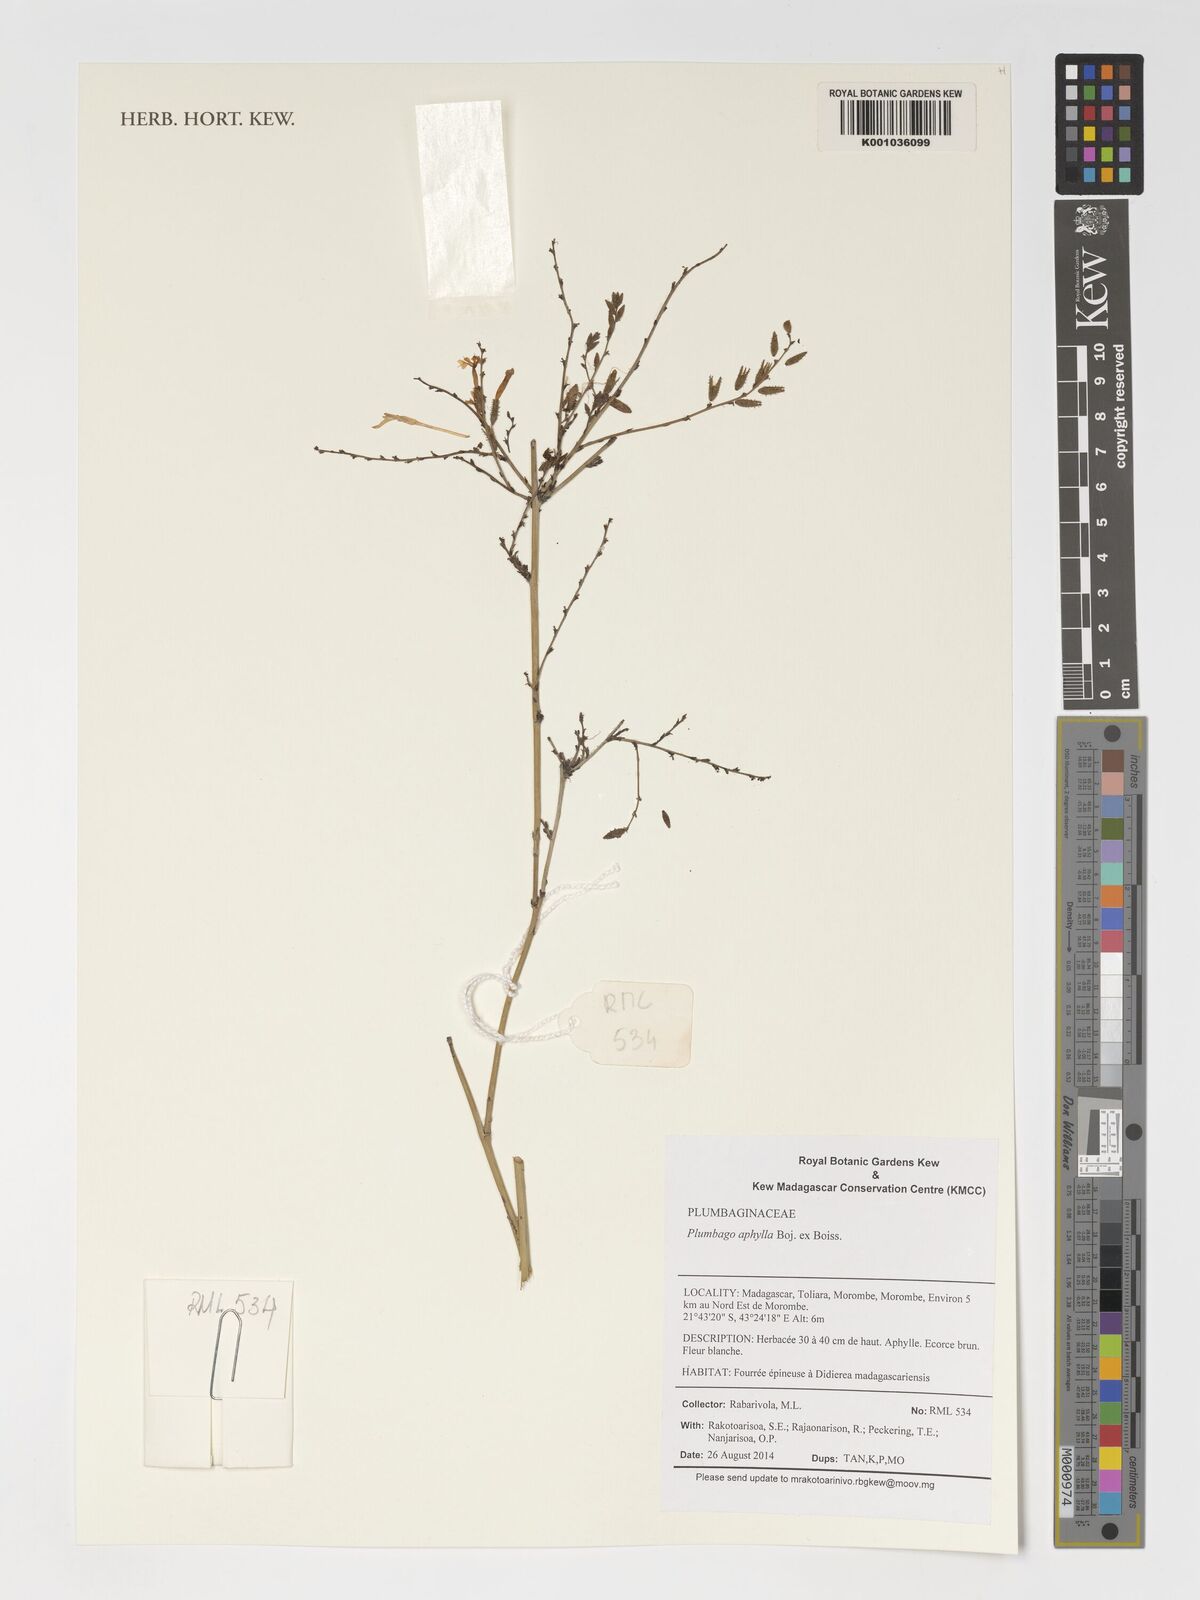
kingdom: Plantae
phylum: Tracheophyta
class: Magnoliopsida
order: Caryophyllales
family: Plumbaginaceae
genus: Plumbago
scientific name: Plumbago aphylla
